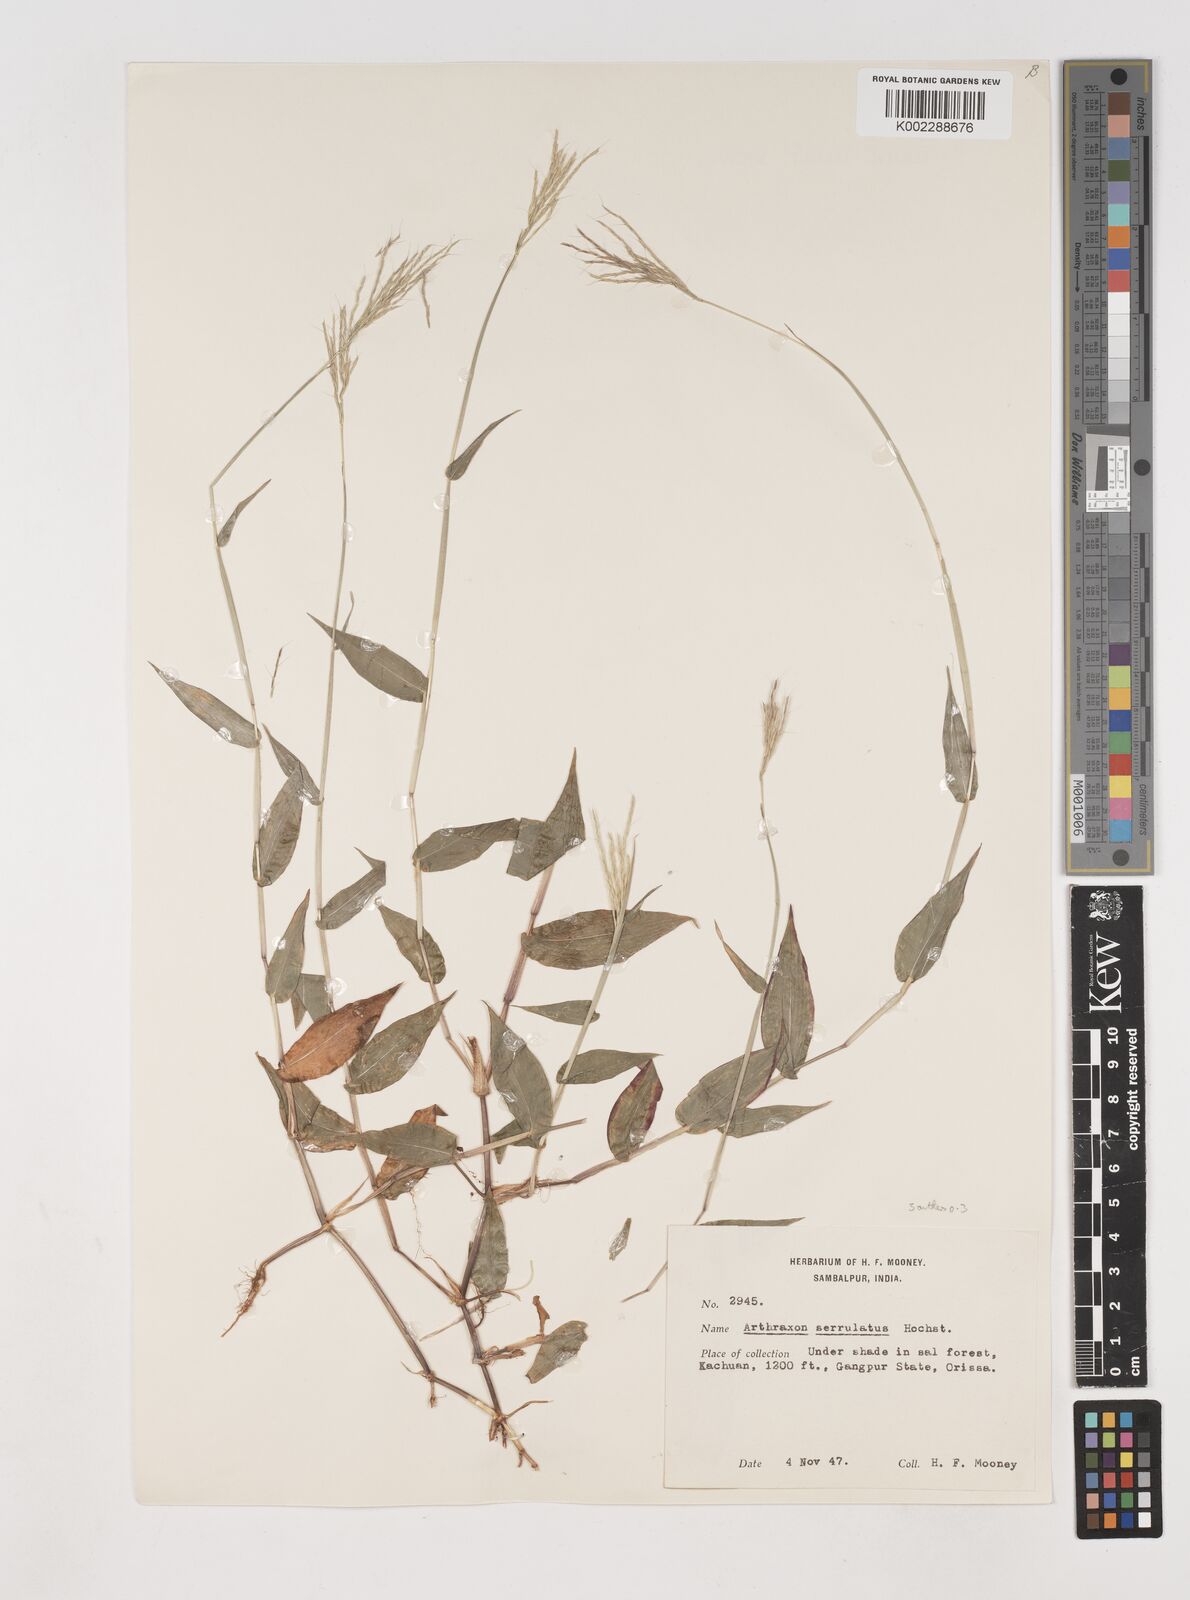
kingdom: Plantae
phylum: Tracheophyta
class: Liliopsida
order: Poales
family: Poaceae
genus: Arthraxon
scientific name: Arthraxon nudus
